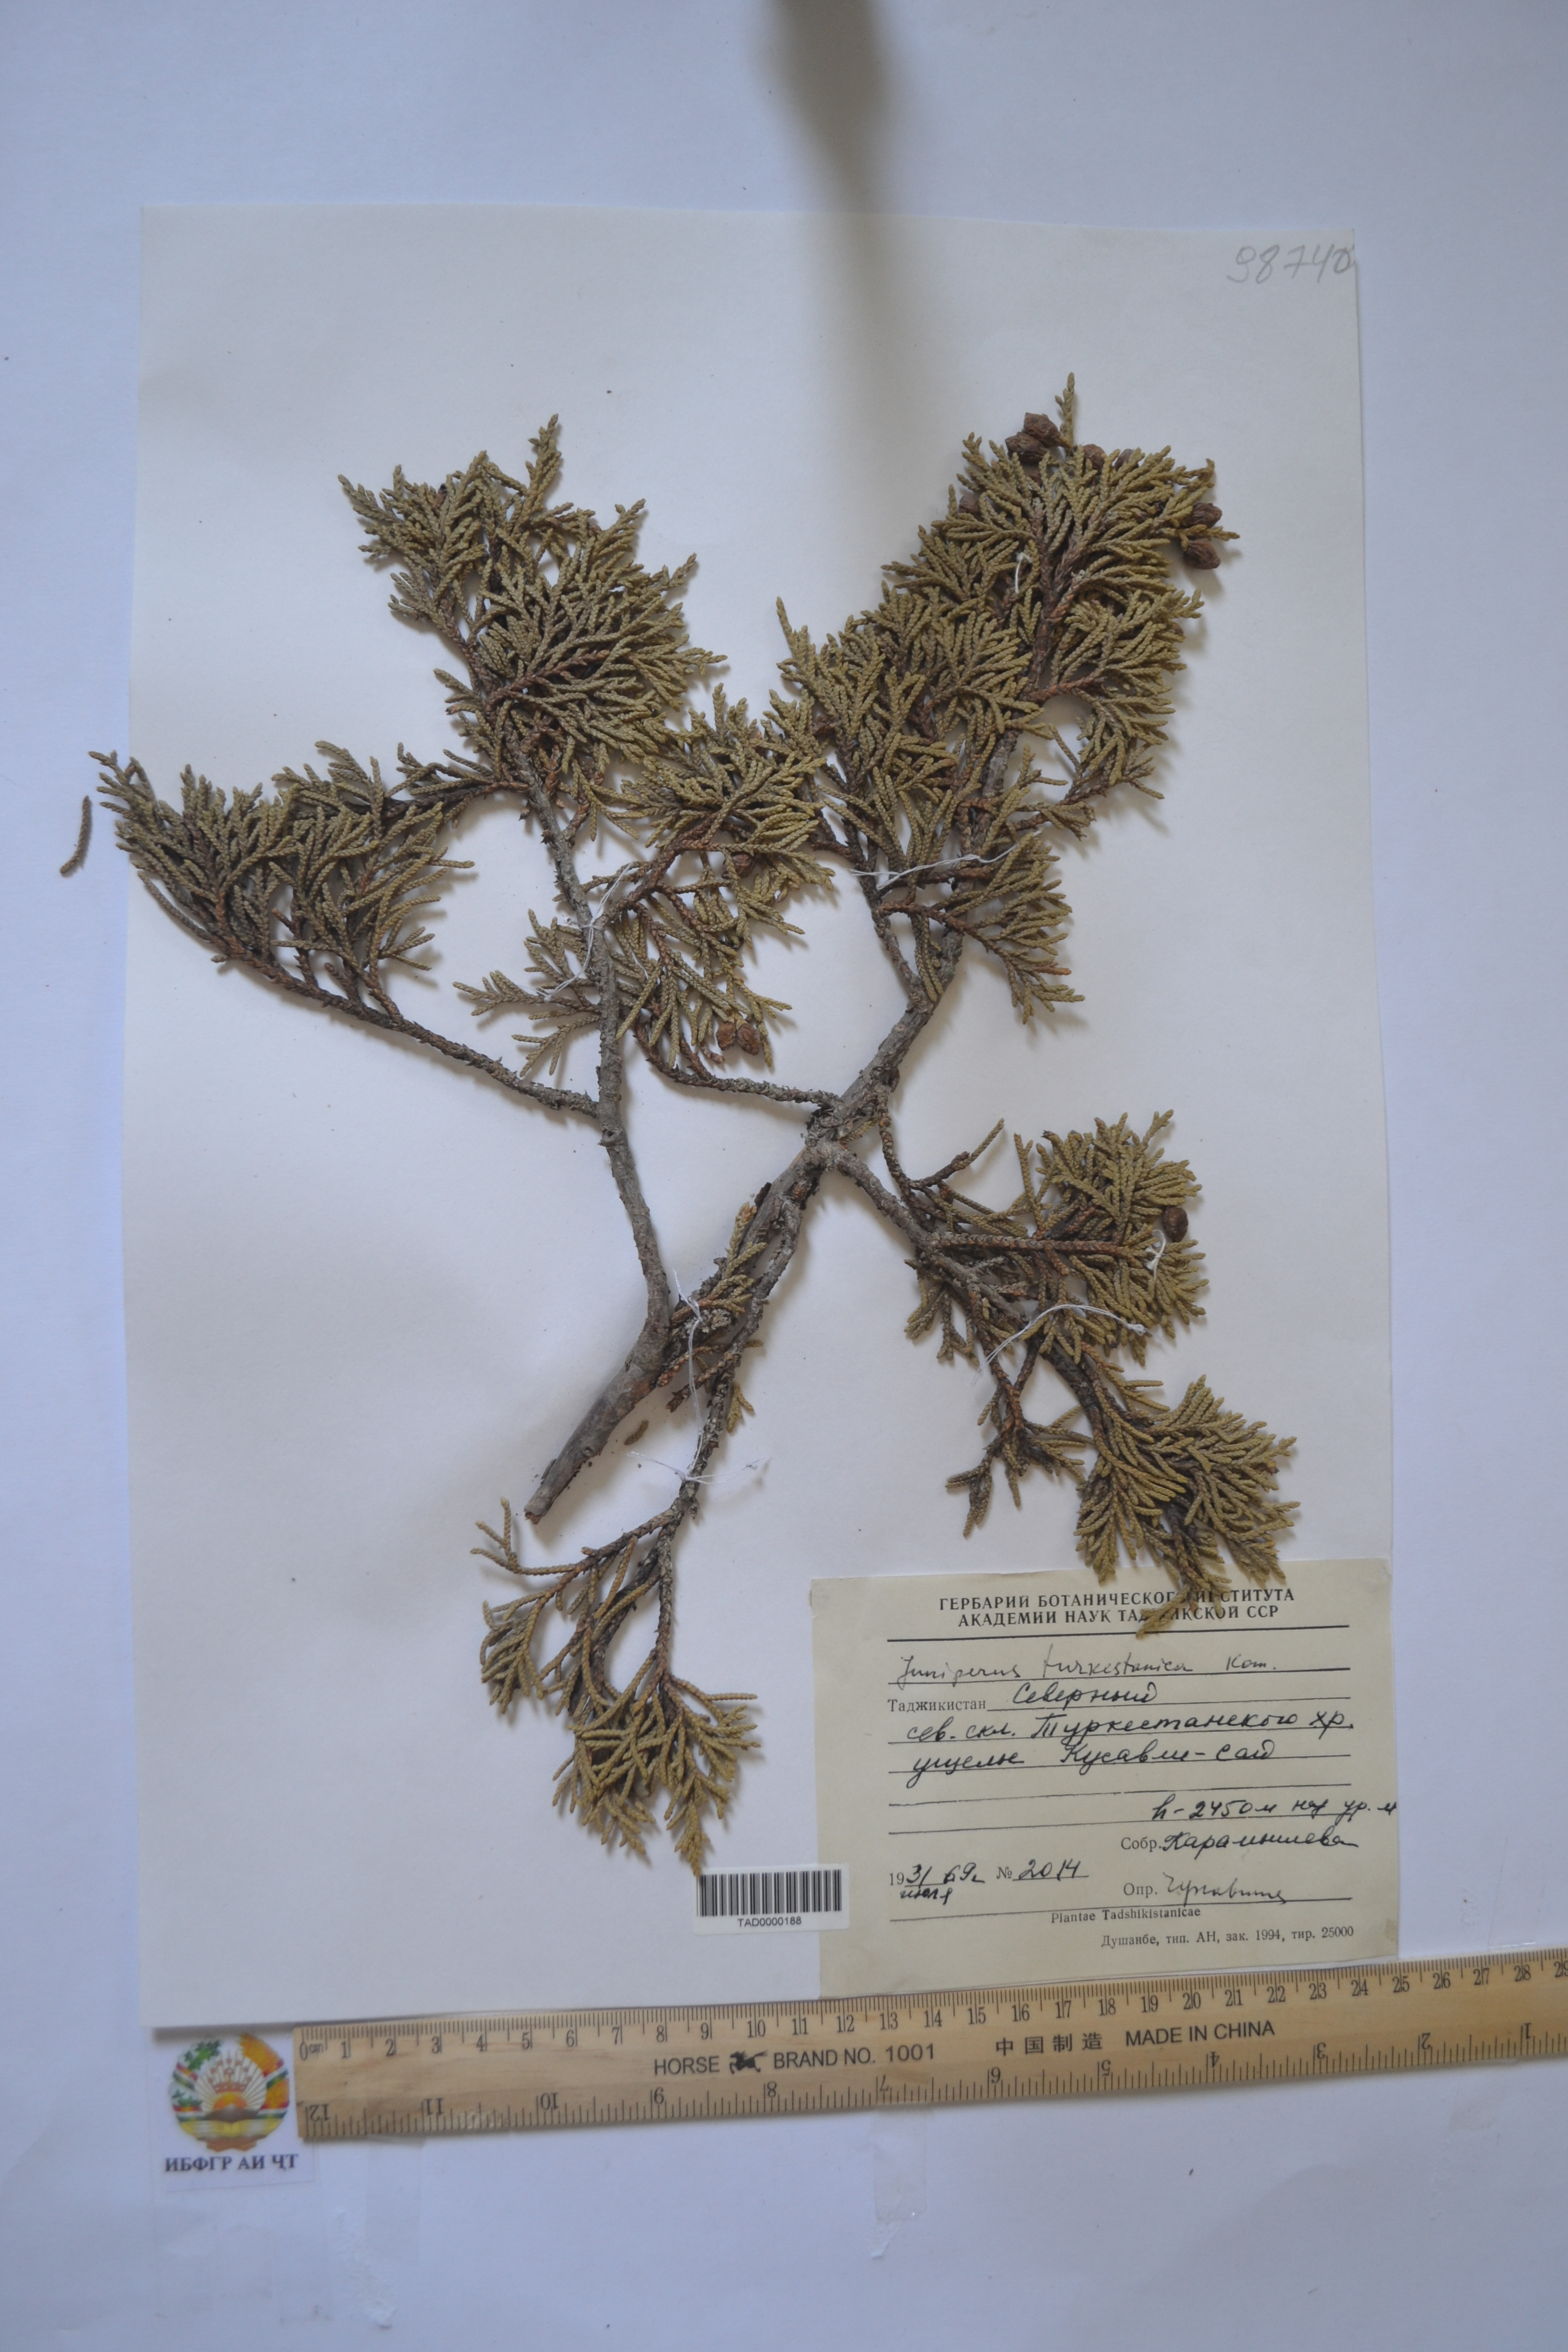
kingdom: Plantae
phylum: Tracheophyta
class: Pinopsida
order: Pinales
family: Cupressaceae
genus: Juniperus
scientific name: Juniperus pseudosabina
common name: Turkestan juniper
